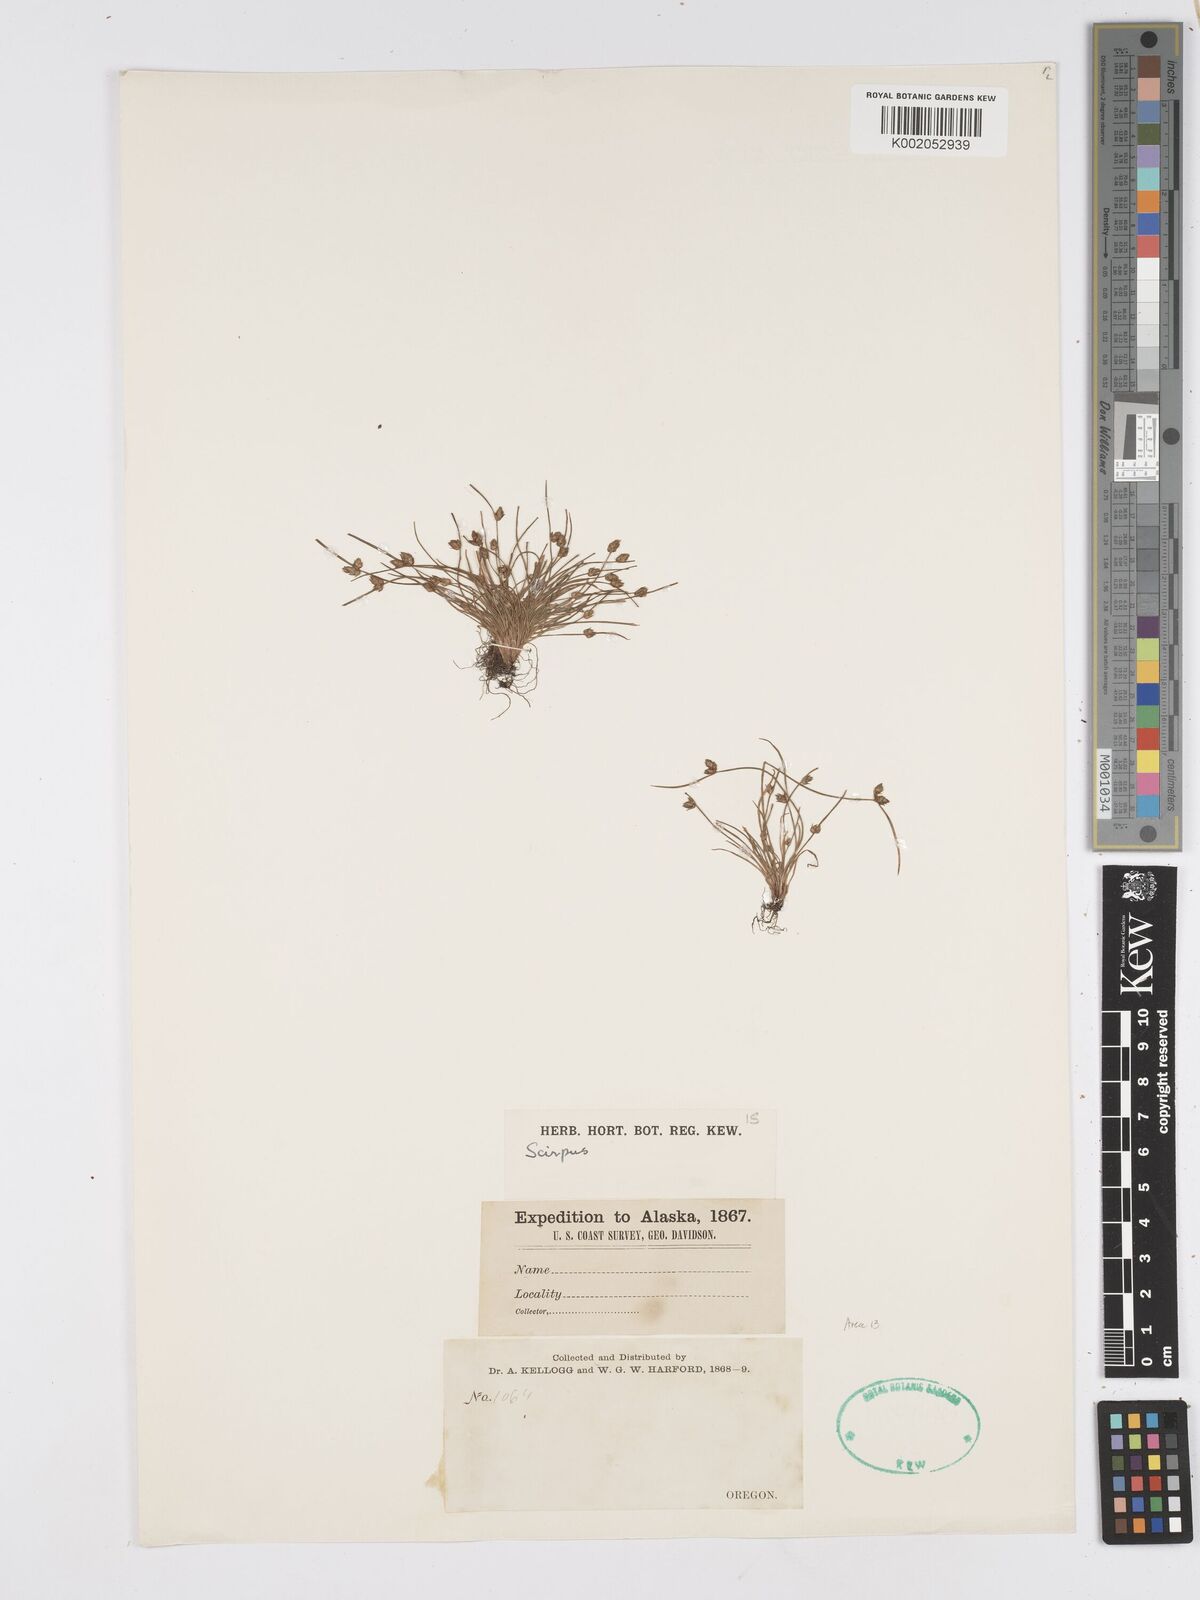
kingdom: Plantae
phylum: Tracheophyta
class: Liliopsida
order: Poales
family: Cyperaceae
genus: Scirpus
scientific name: Scirpus
